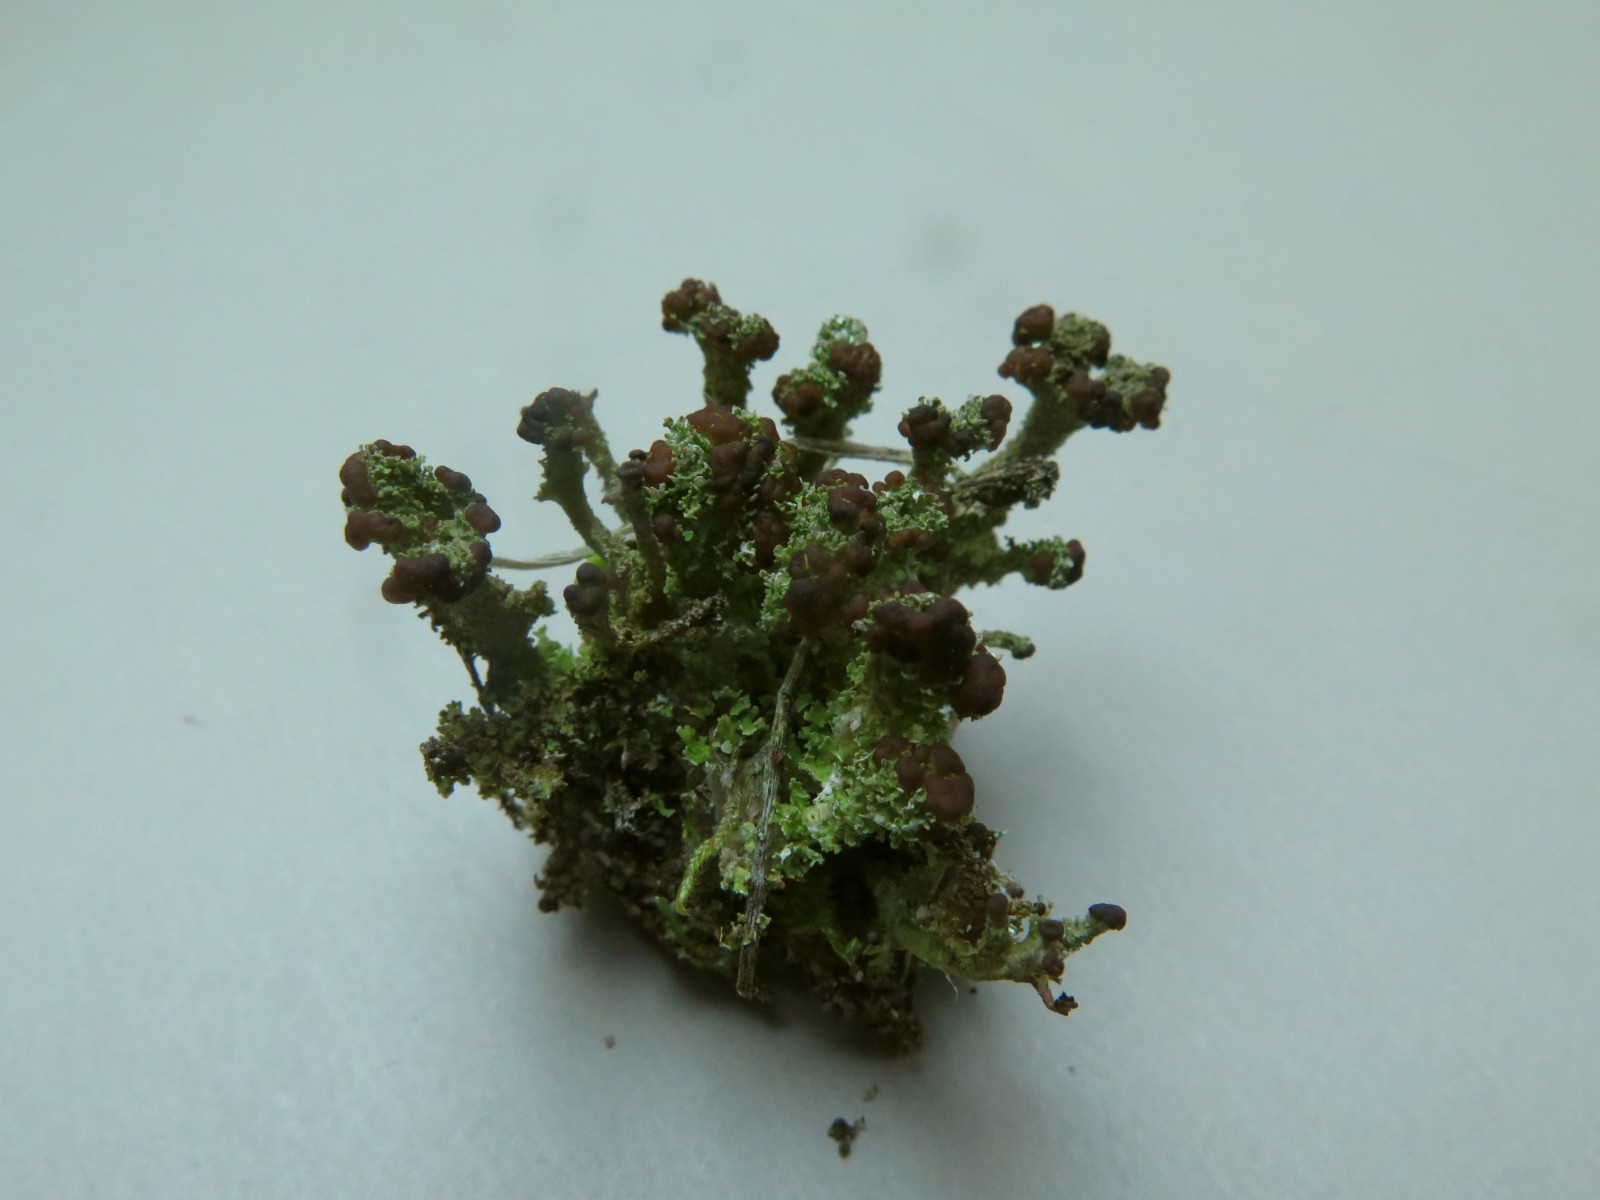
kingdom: Fungi
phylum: Ascomycota
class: Lecanoromycetes
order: Lecanorales
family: Cladoniaceae
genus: Cladonia
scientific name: Cladonia ramulosa
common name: kliddet bægerlav
